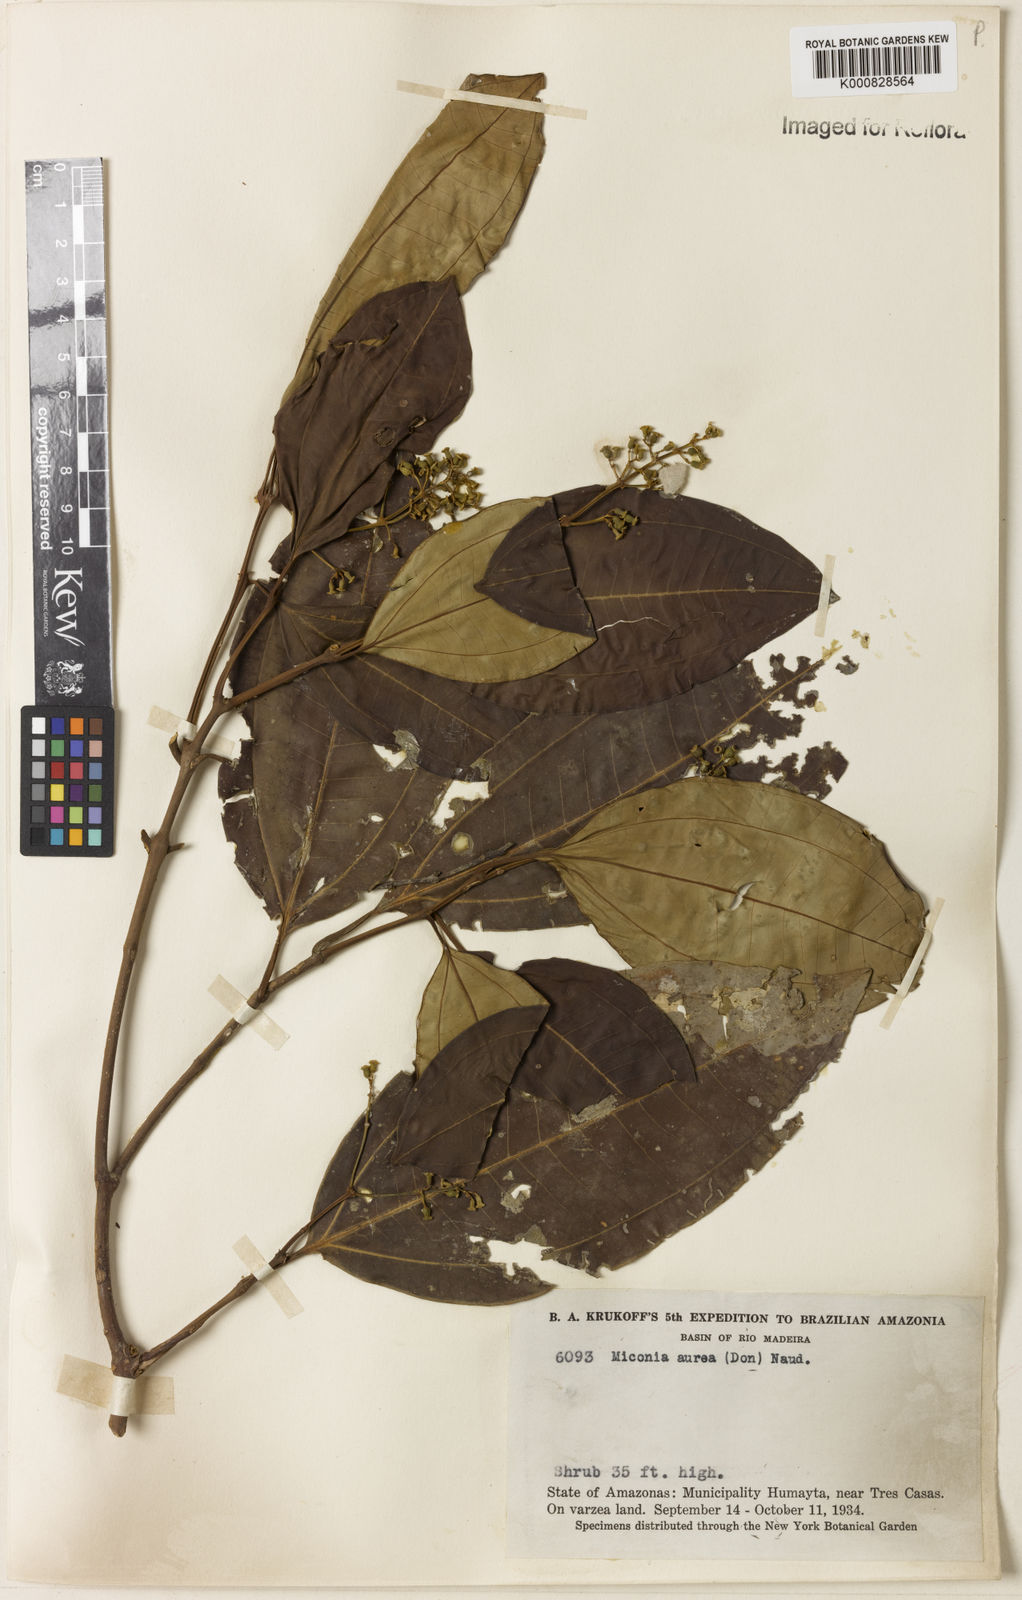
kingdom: Plantae
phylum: Tracheophyta
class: Magnoliopsida
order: Myrtales
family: Melastomataceae
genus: Miconia
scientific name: Miconia aurea
